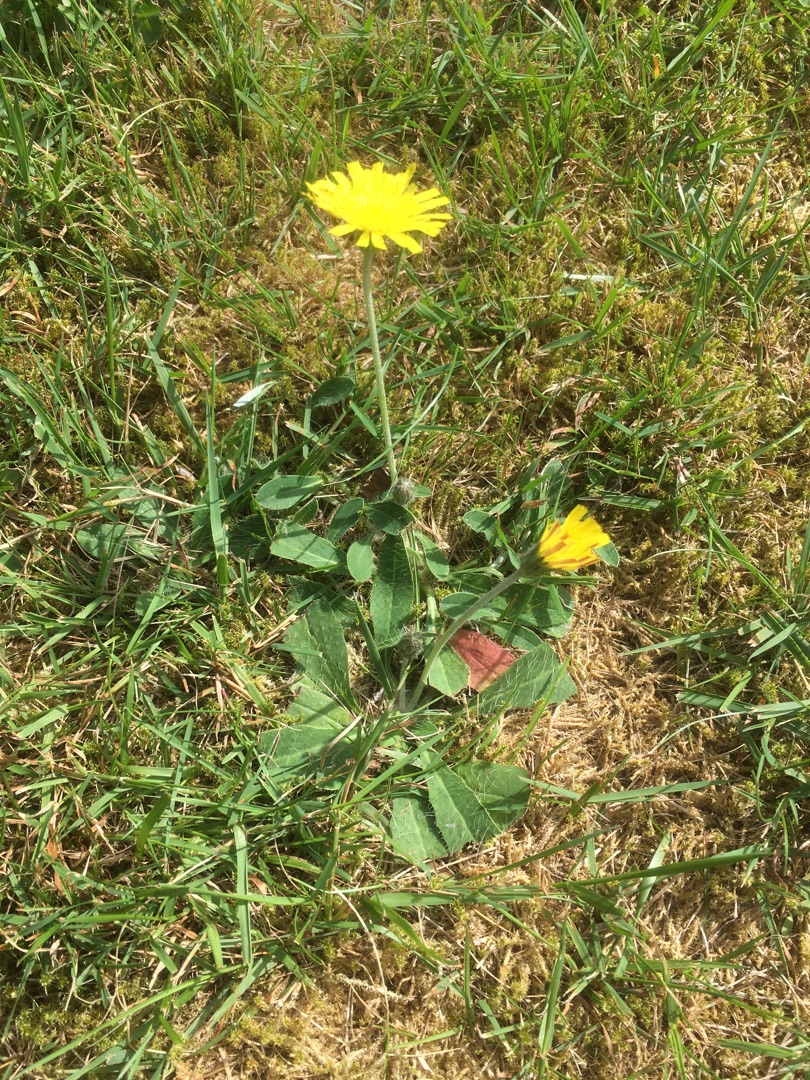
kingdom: Plantae
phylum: Tracheophyta
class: Magnoliopsida
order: Asterales
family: Asteraceae
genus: Pilosella
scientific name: Pilosella officinarum
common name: Håret høgeurt
